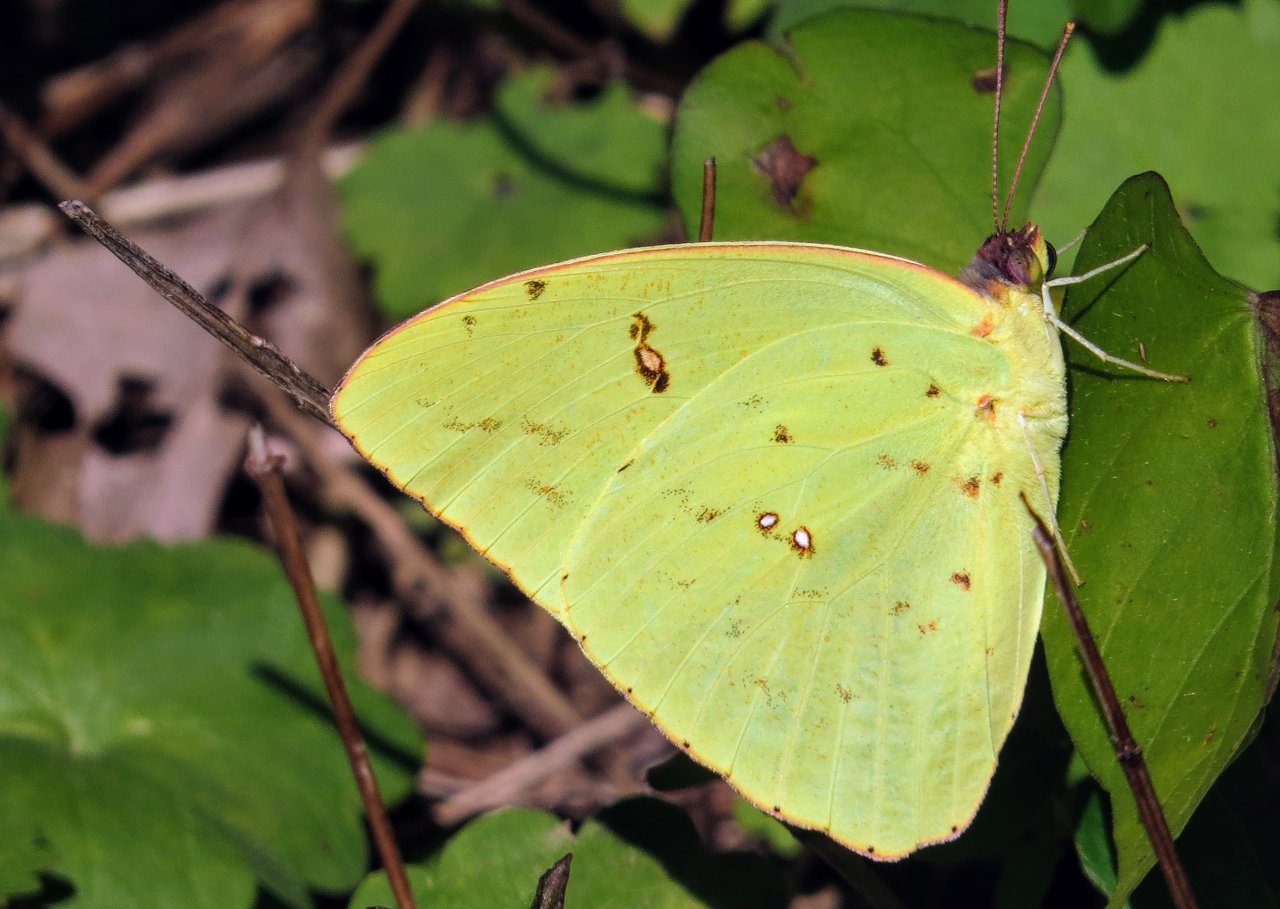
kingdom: Animalia
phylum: Arthropoda
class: Insecta
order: Lepidoptera
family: Pieridae
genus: Phoebis
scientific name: Phoebis sennae
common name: Cloudless Sulphur
